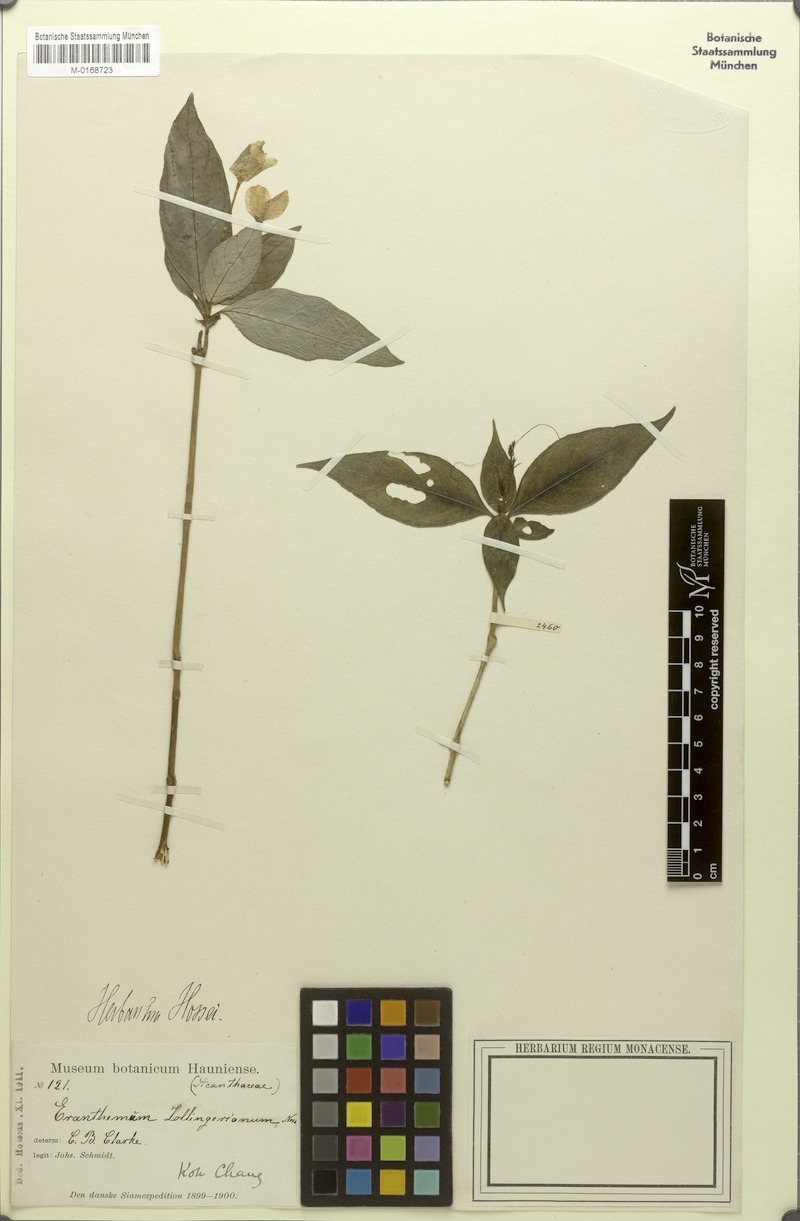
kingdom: Plantae
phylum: Tracheophyta
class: Magnoliopsida
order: Lamiales
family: Acanthaceae
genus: Pseuderanthemum
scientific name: Pseuderanthemum diversifolium
